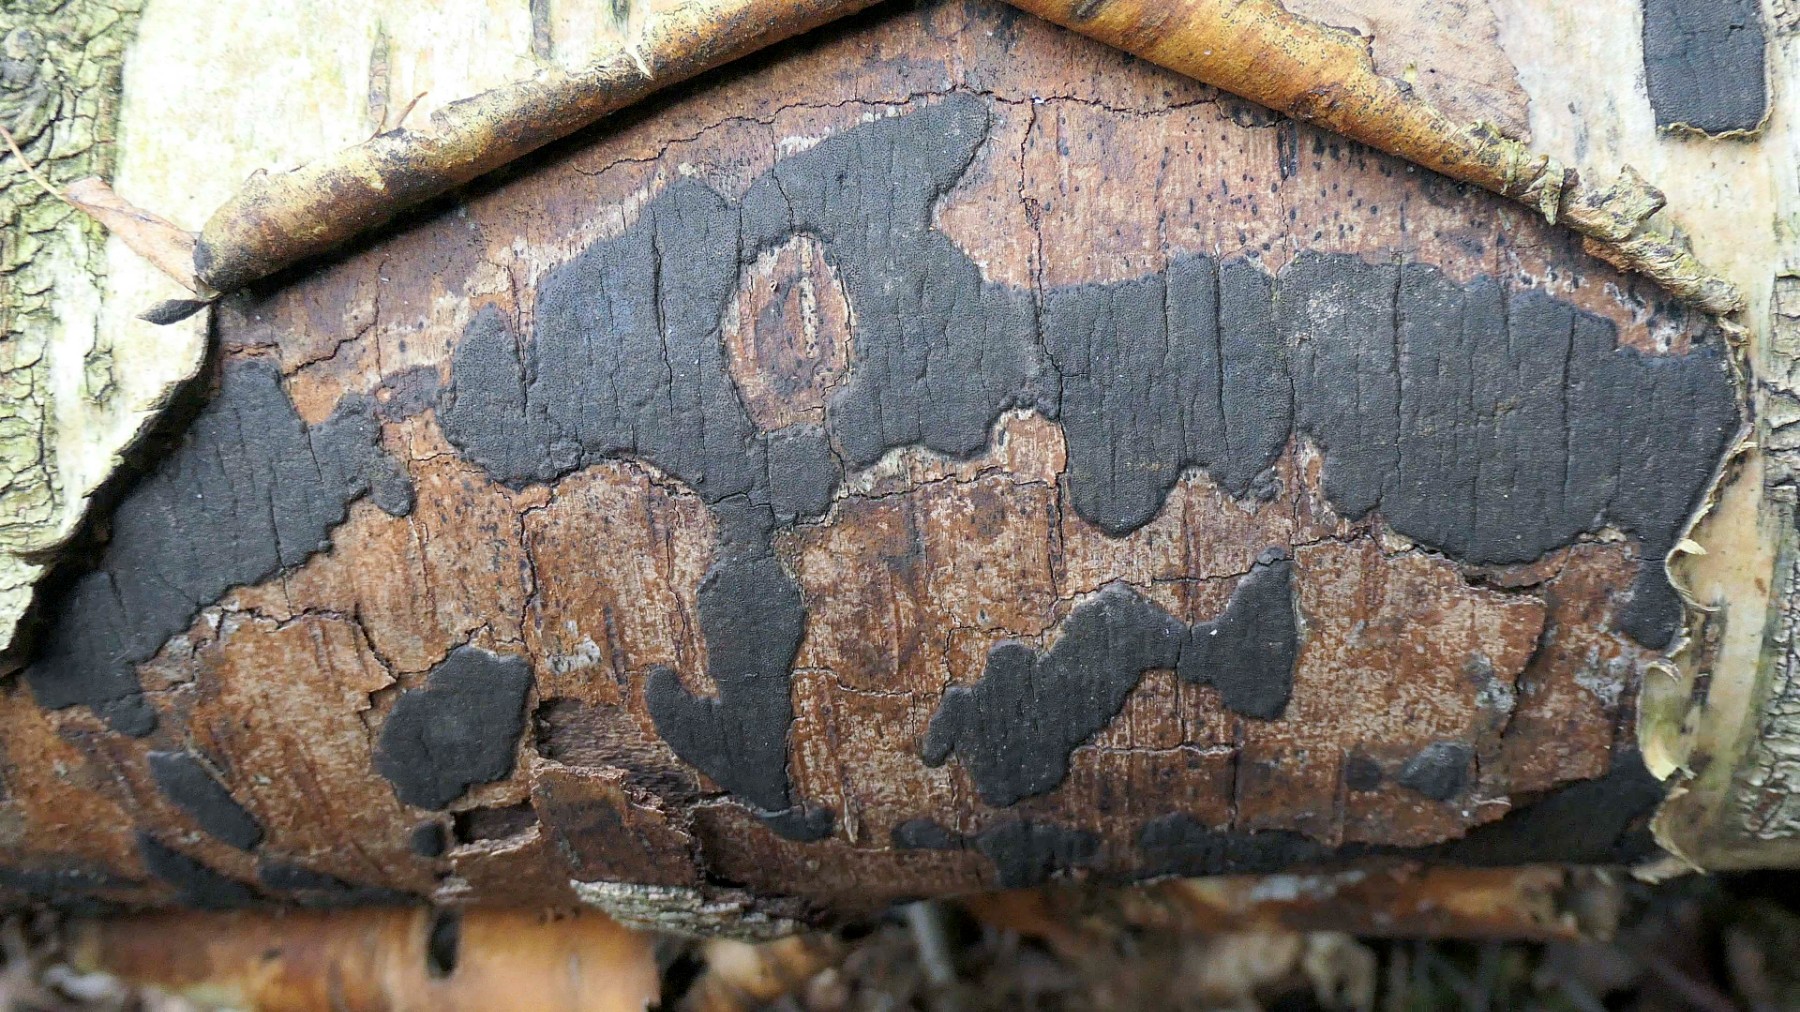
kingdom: Fungi
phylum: Ascomycota
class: Sordariomycetes
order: Xylariales
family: Diatrypaceae
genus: Diatrype
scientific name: Diatrype
